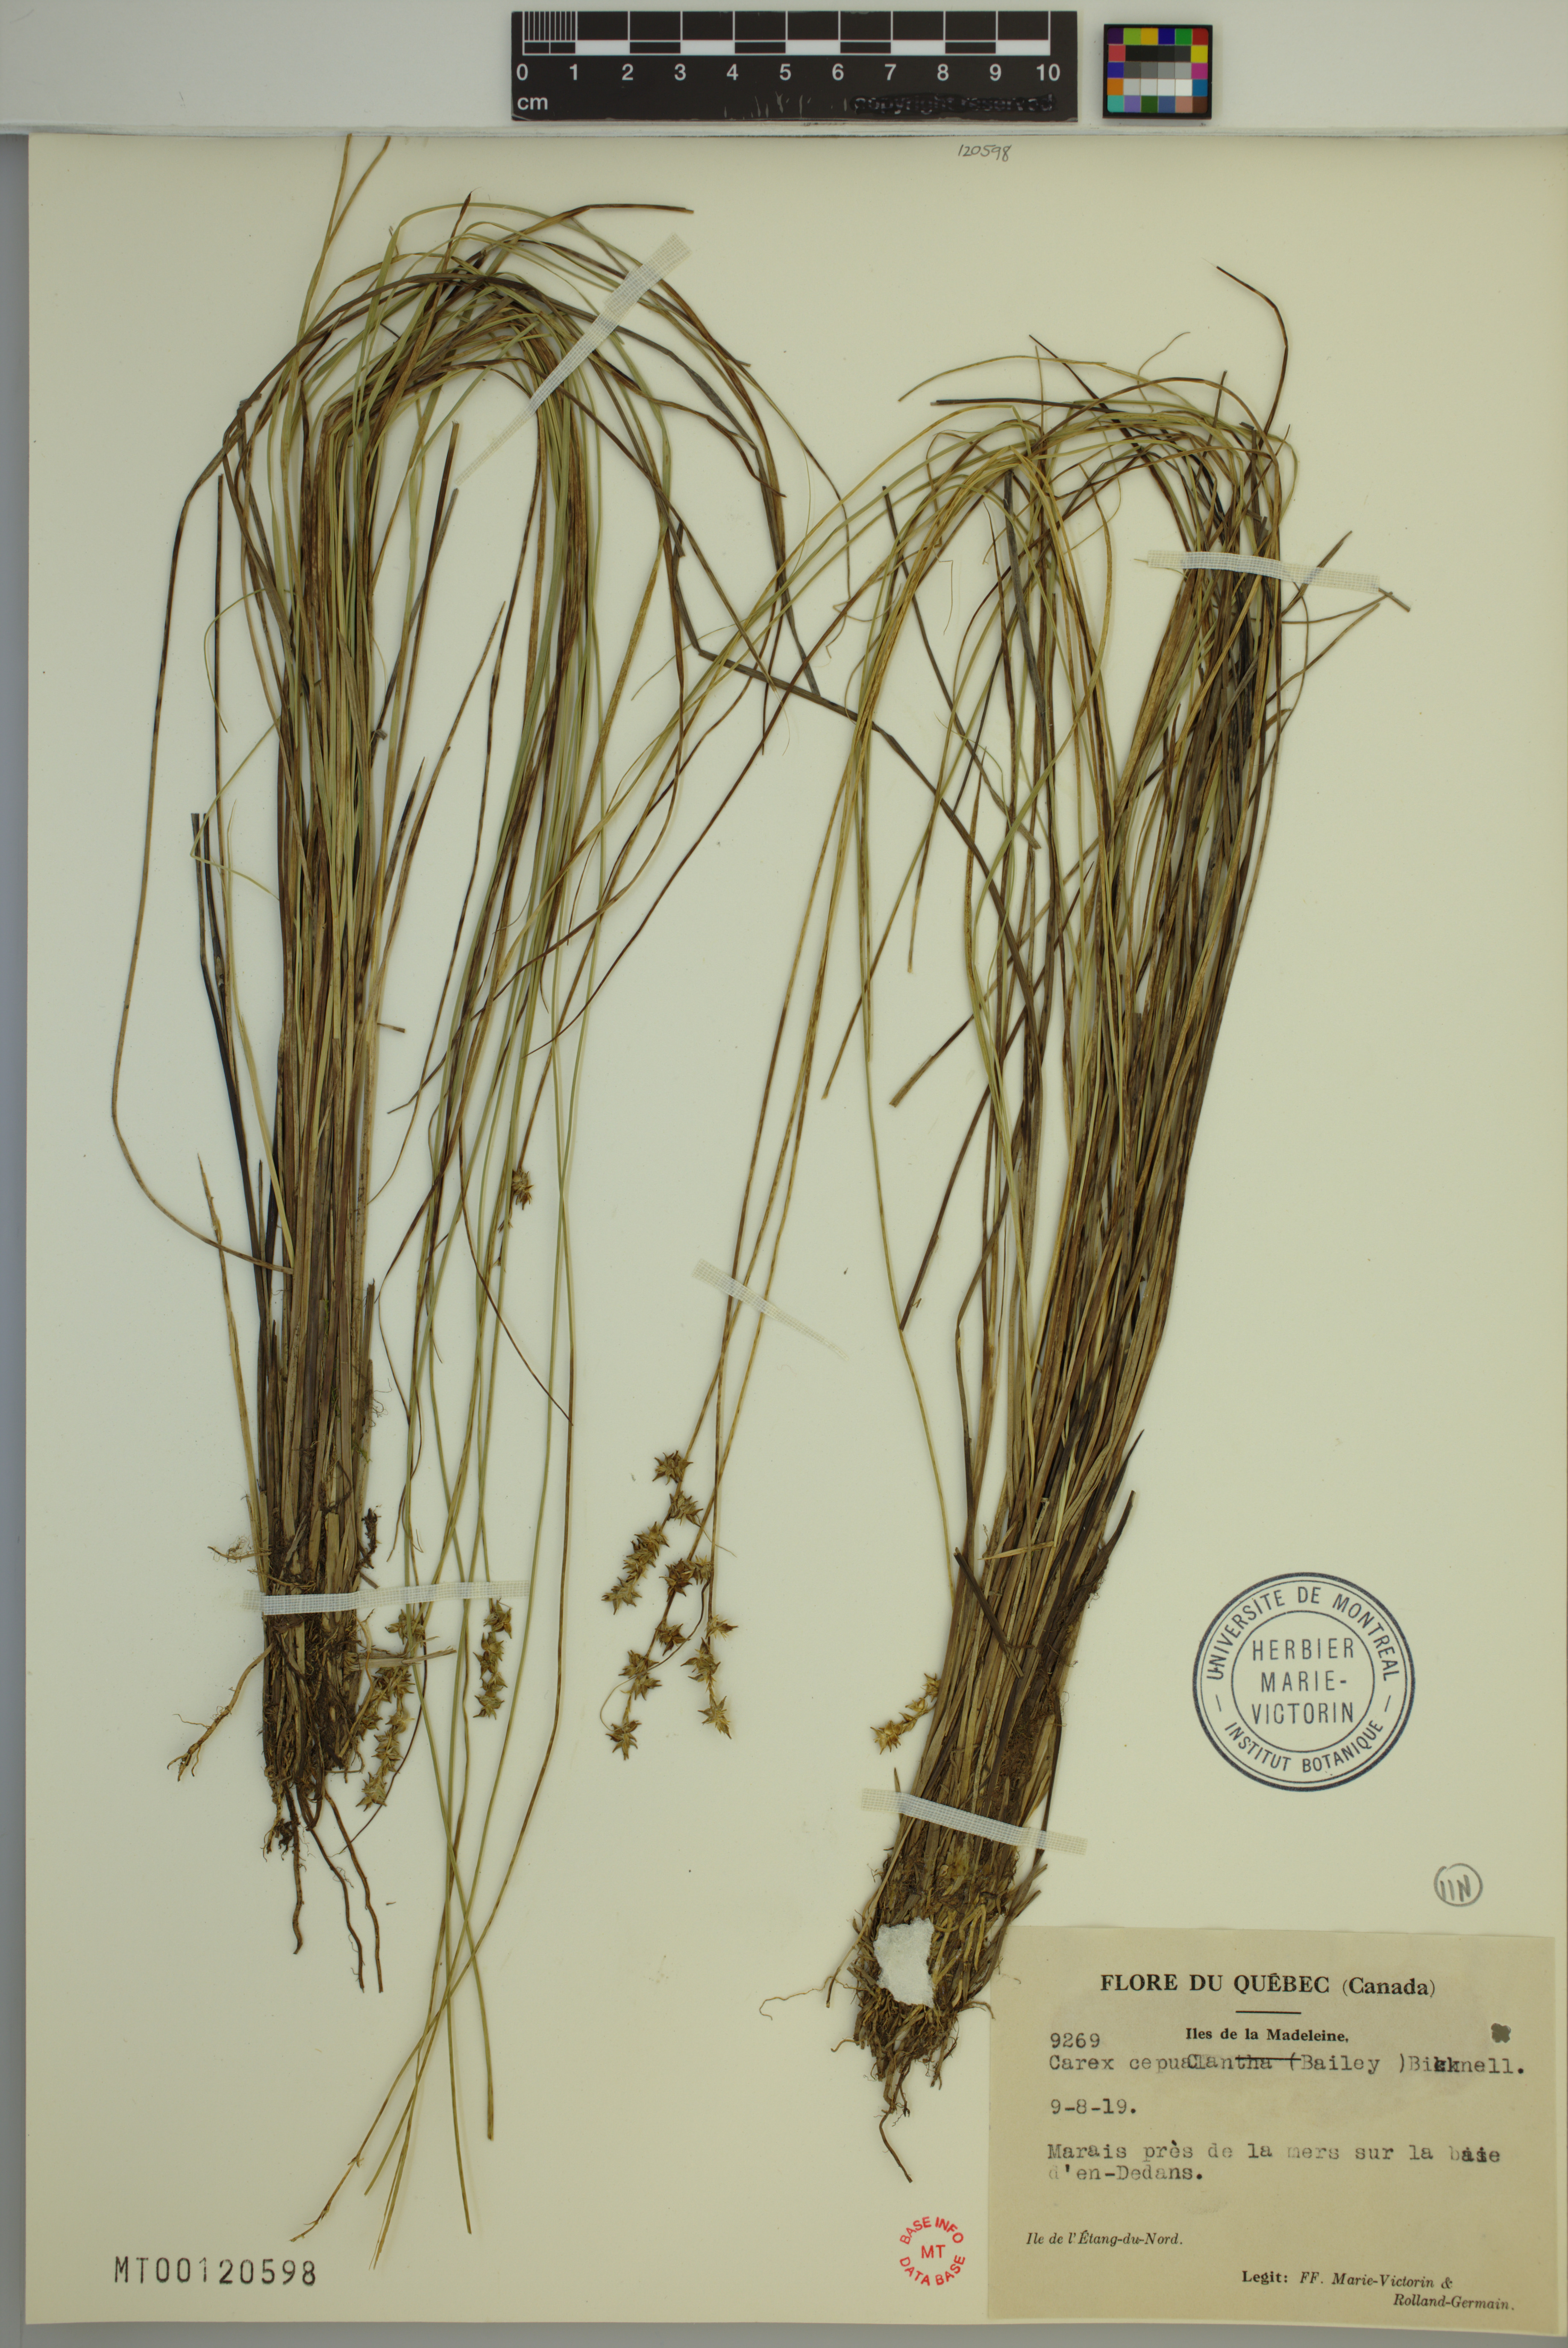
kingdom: Plantae
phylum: Tracheophyta
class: Liliopsida
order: Poales
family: Cyperaceae
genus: Carex
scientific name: Carex echinata
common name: Star sedge
